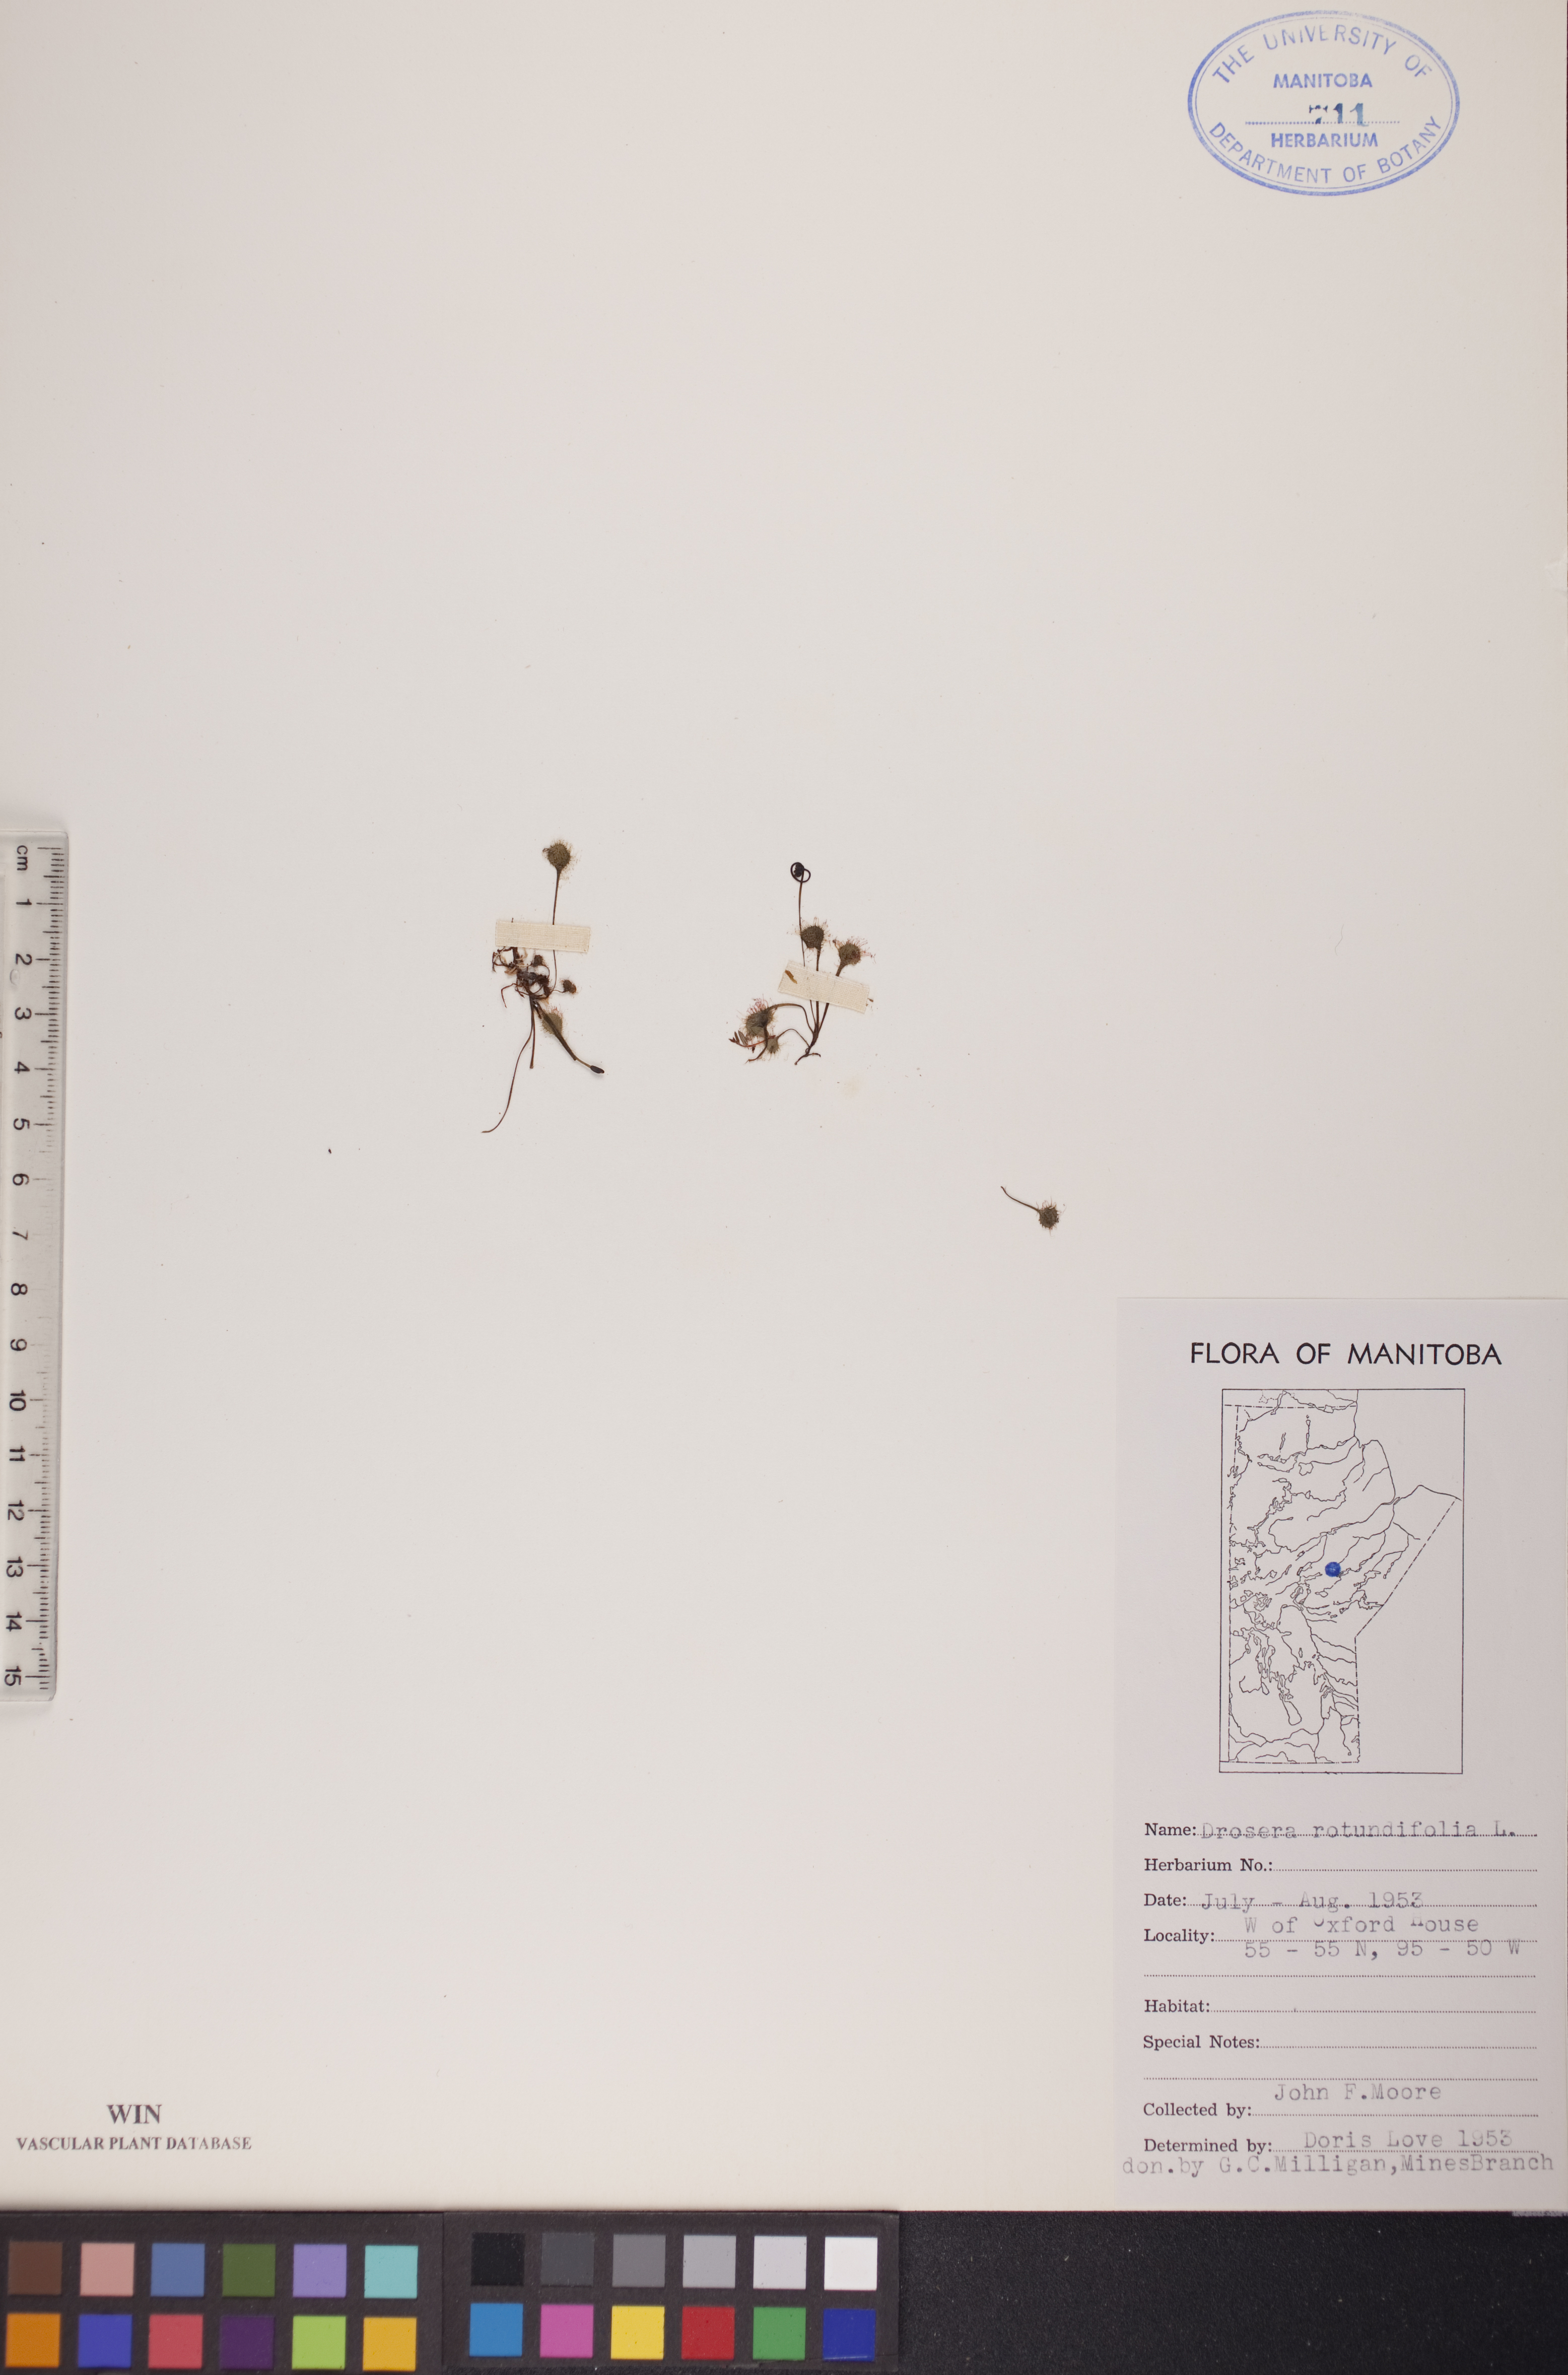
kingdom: Plantae
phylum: Tracheophyta
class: Magnoliopsida
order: Caryophyllales
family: Droseraceae
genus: Drosera
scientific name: Drosera rotundifolia
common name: Round-leaved sundew
